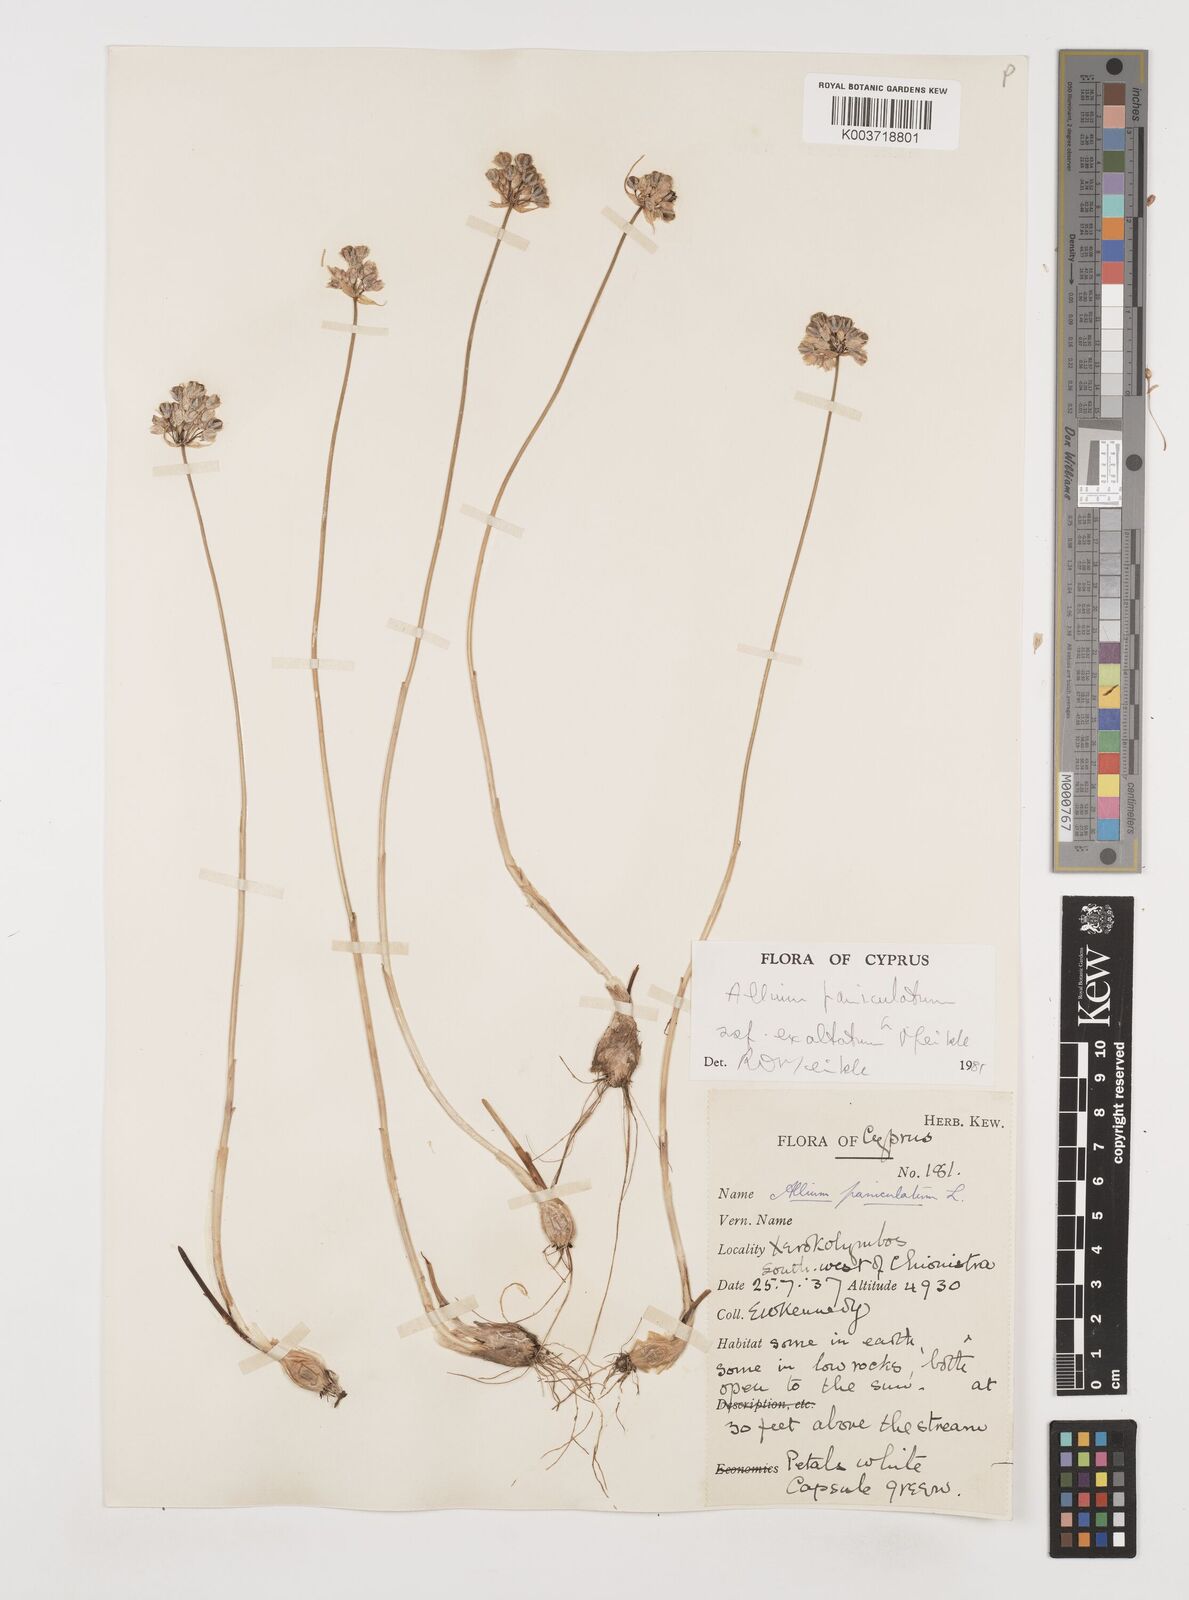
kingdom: Plantae
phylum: Tracheophyta
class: Liliopsida
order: Asparagales
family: Amaryllidaceae
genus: Allium
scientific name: Allium paniculatum
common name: Pale garlic
